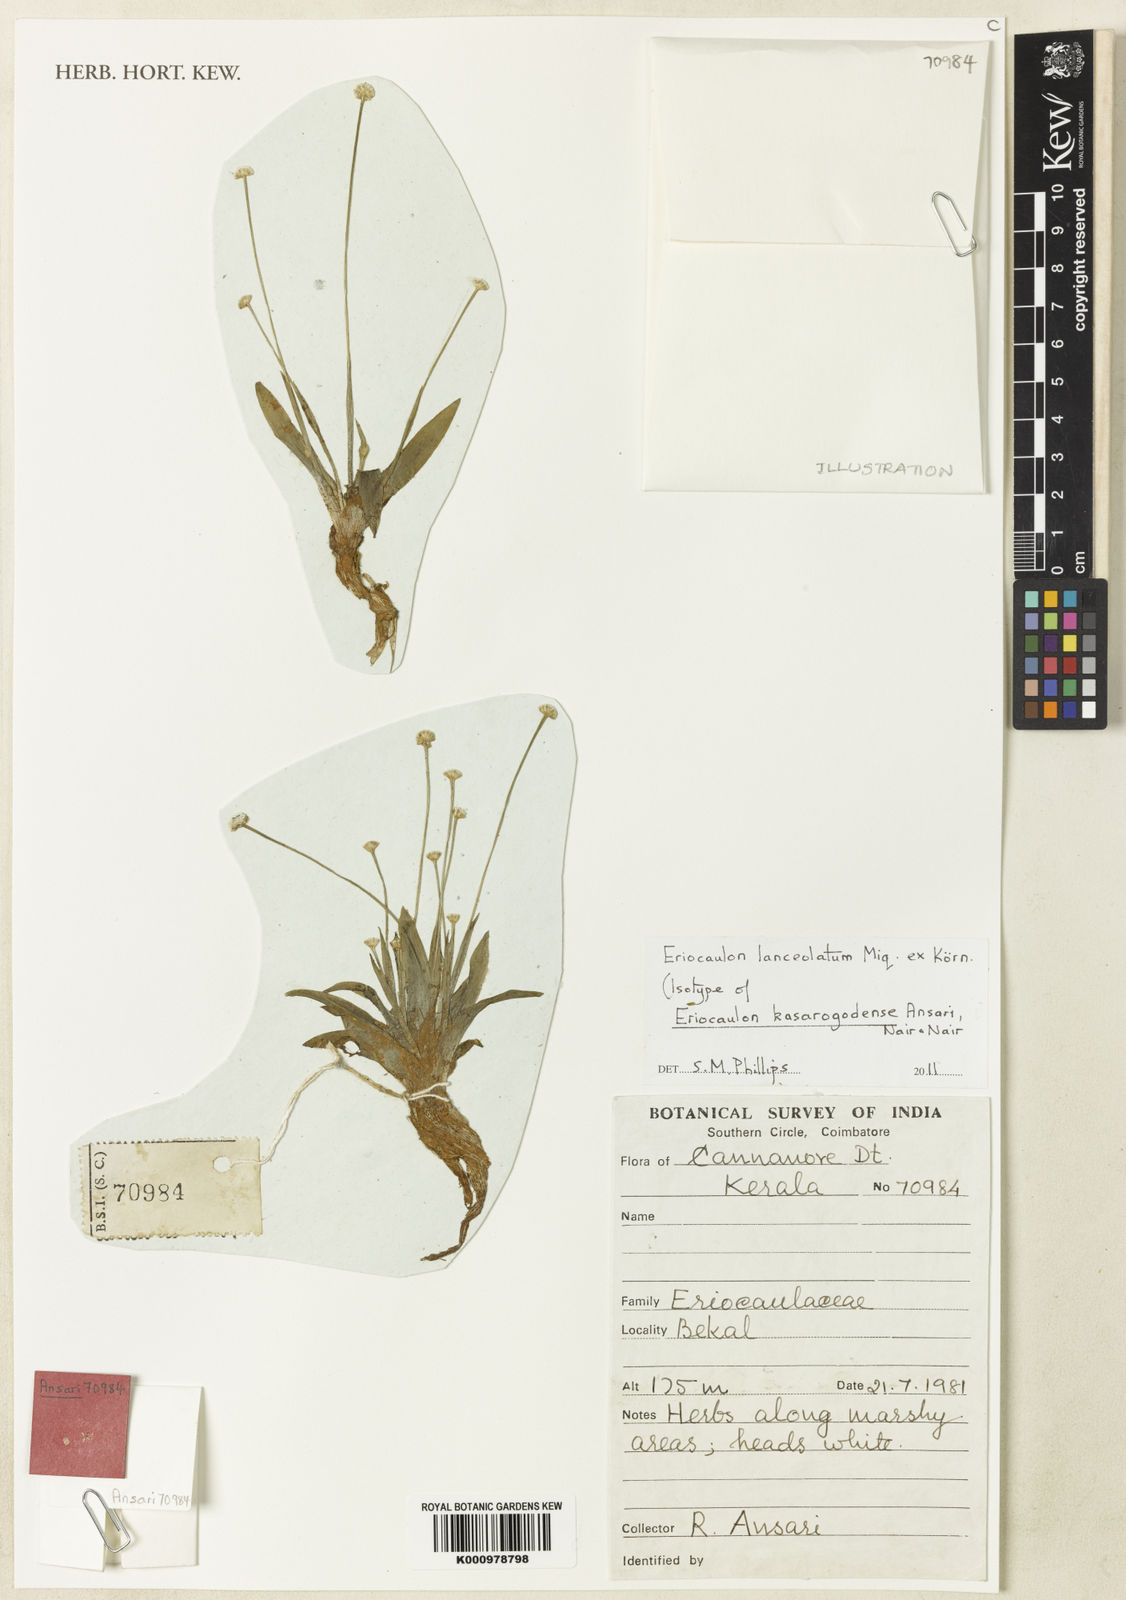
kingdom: Plantae
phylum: Tracheophyta
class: Liliopsida
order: Poales
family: Eriocaulaceae
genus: Eriocaulon
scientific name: Eriocaulon
